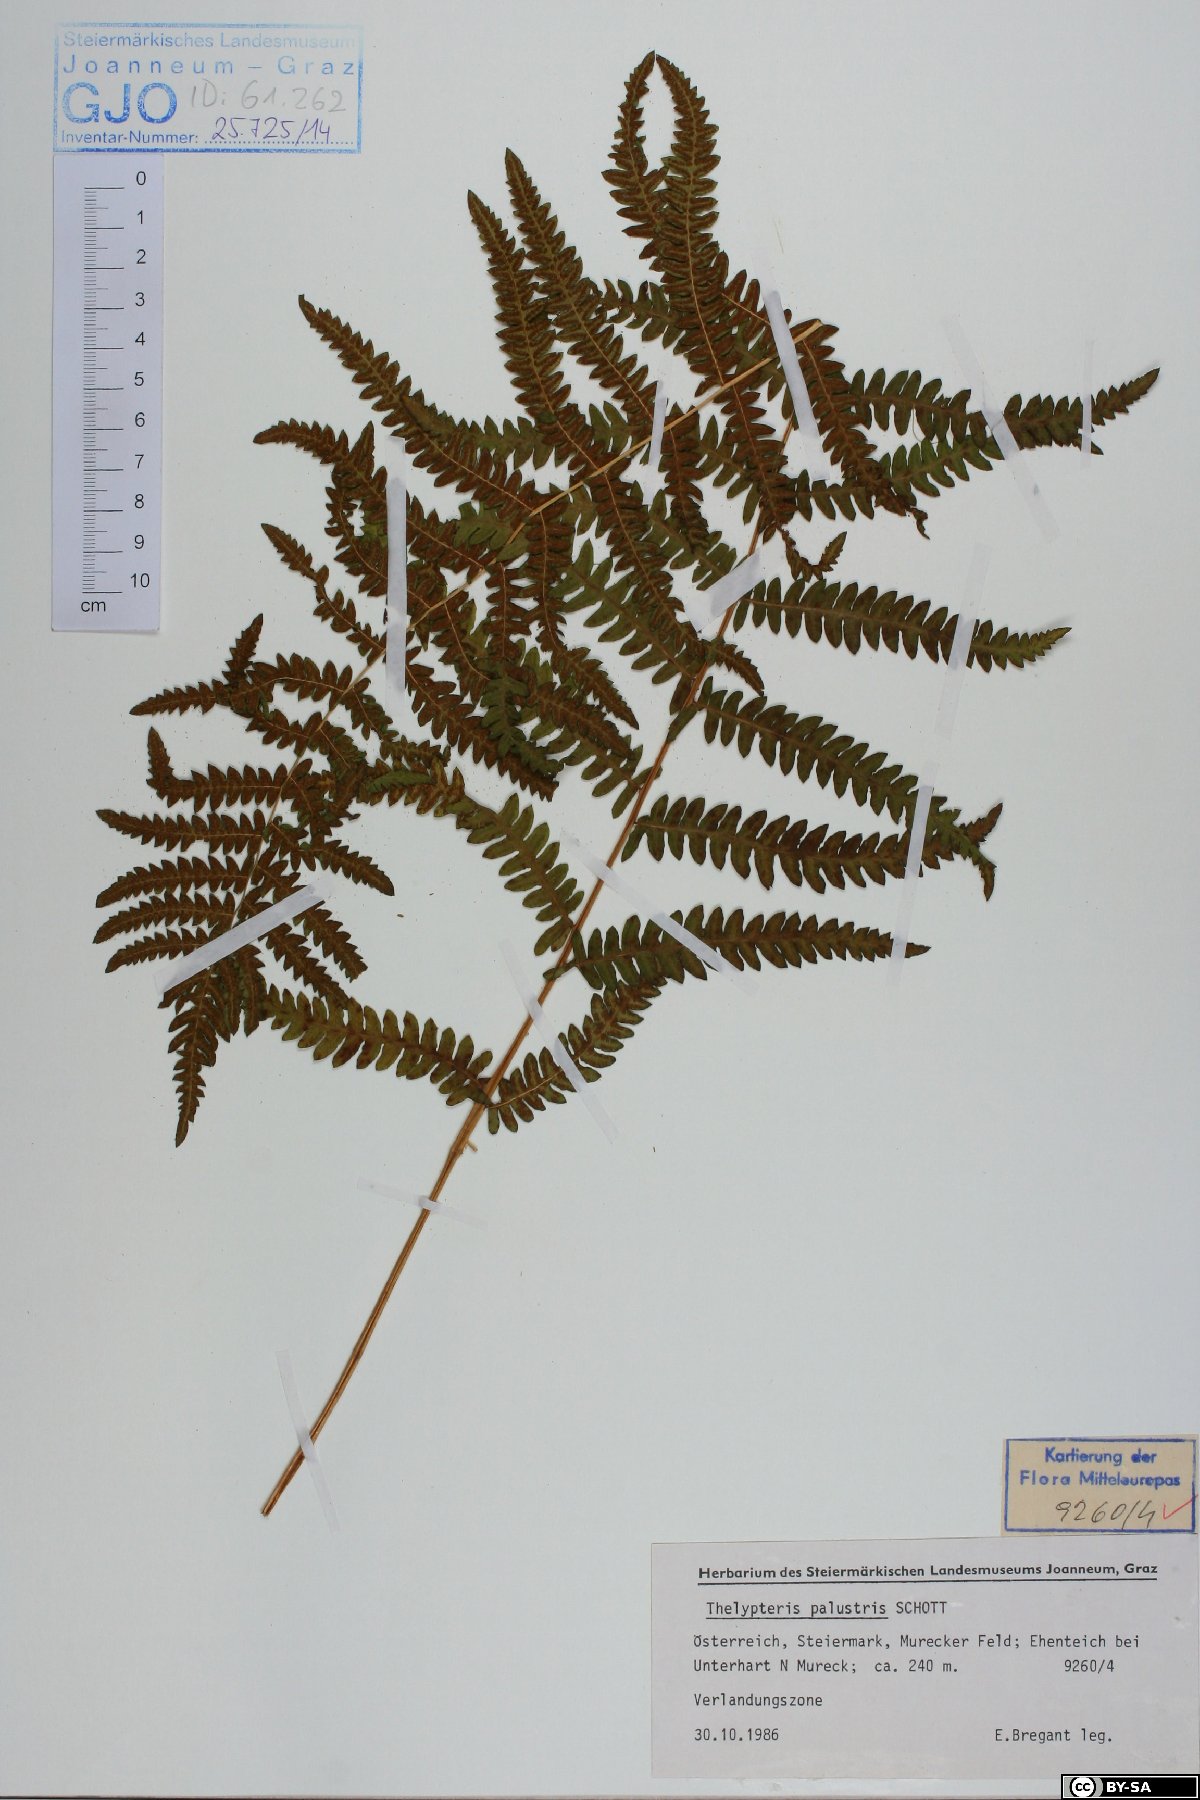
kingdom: Plantae
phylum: Tracheophyta
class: Polypodiopsida
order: Polypodiales
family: Thelypteridaceae
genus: Thelypteris
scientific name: Thelypteris palustris
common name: Marsh fern
